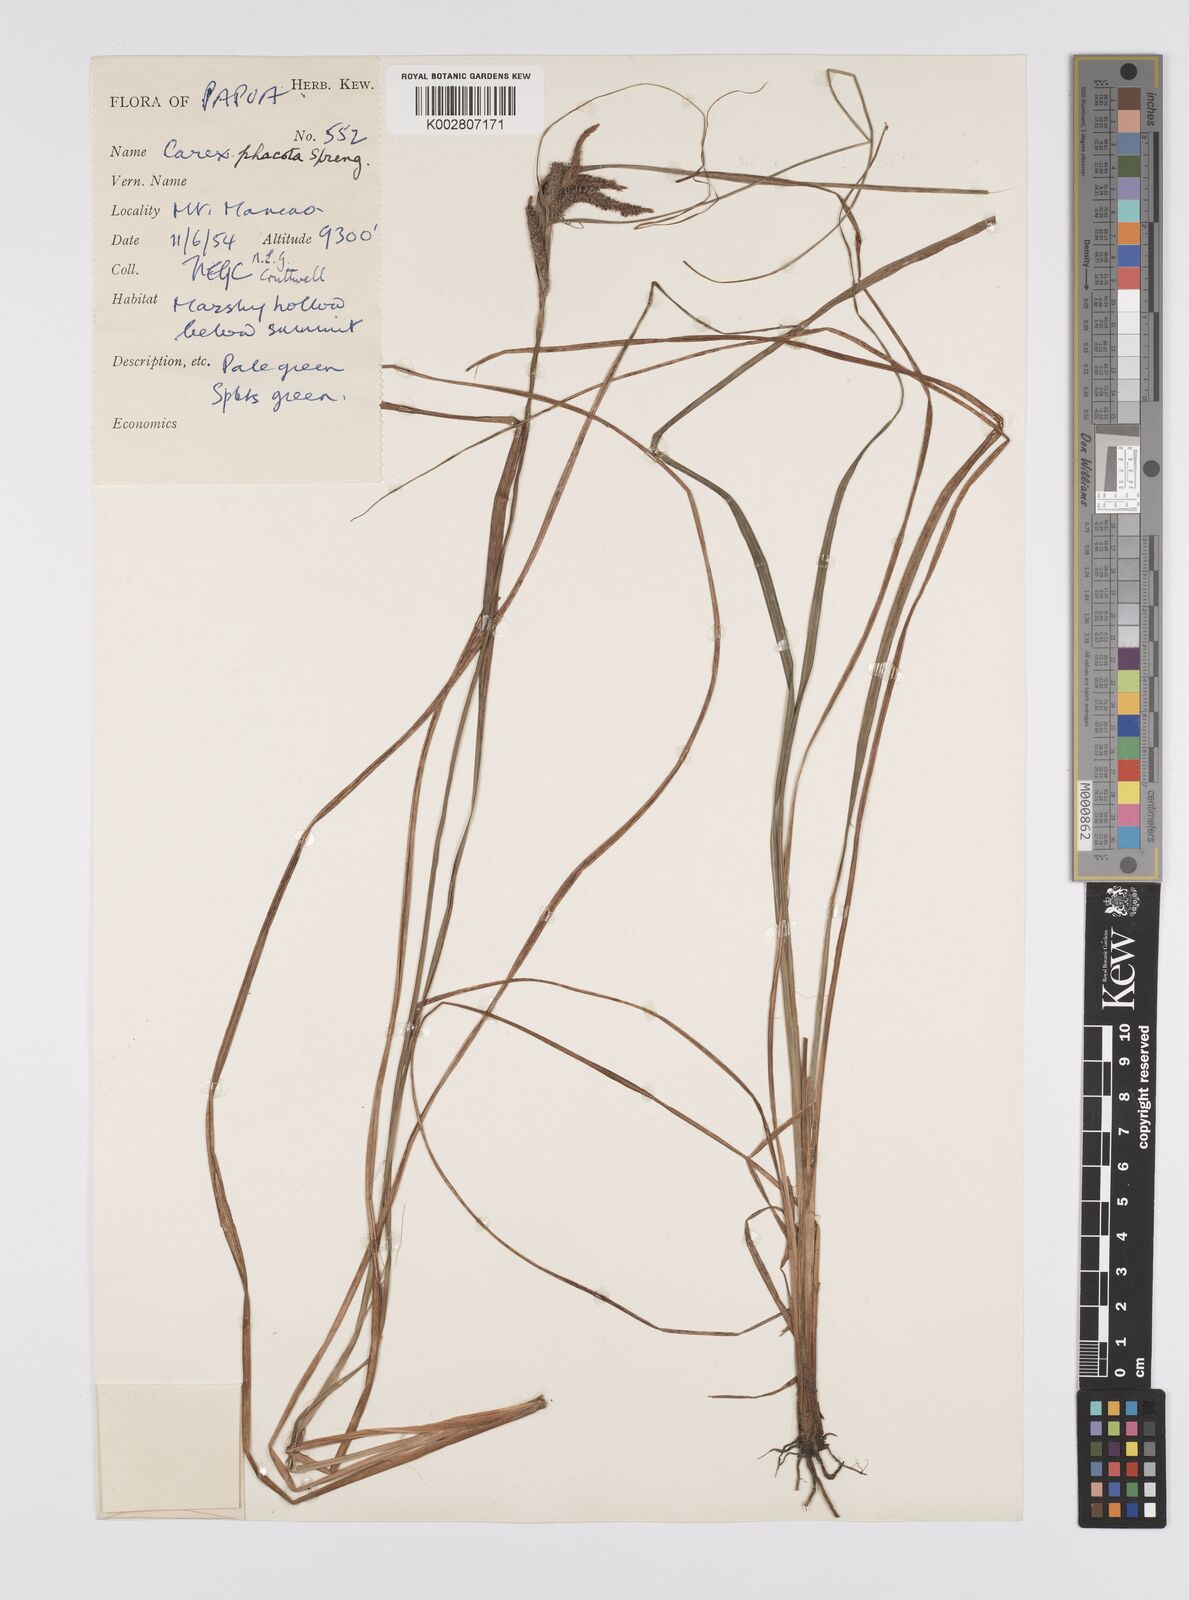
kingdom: Plantae
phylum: Tracheophyta
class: Liliopsida
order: Poales
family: Cyperaceae
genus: Carex
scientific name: Carex phacota
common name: Lakeshore sedge
